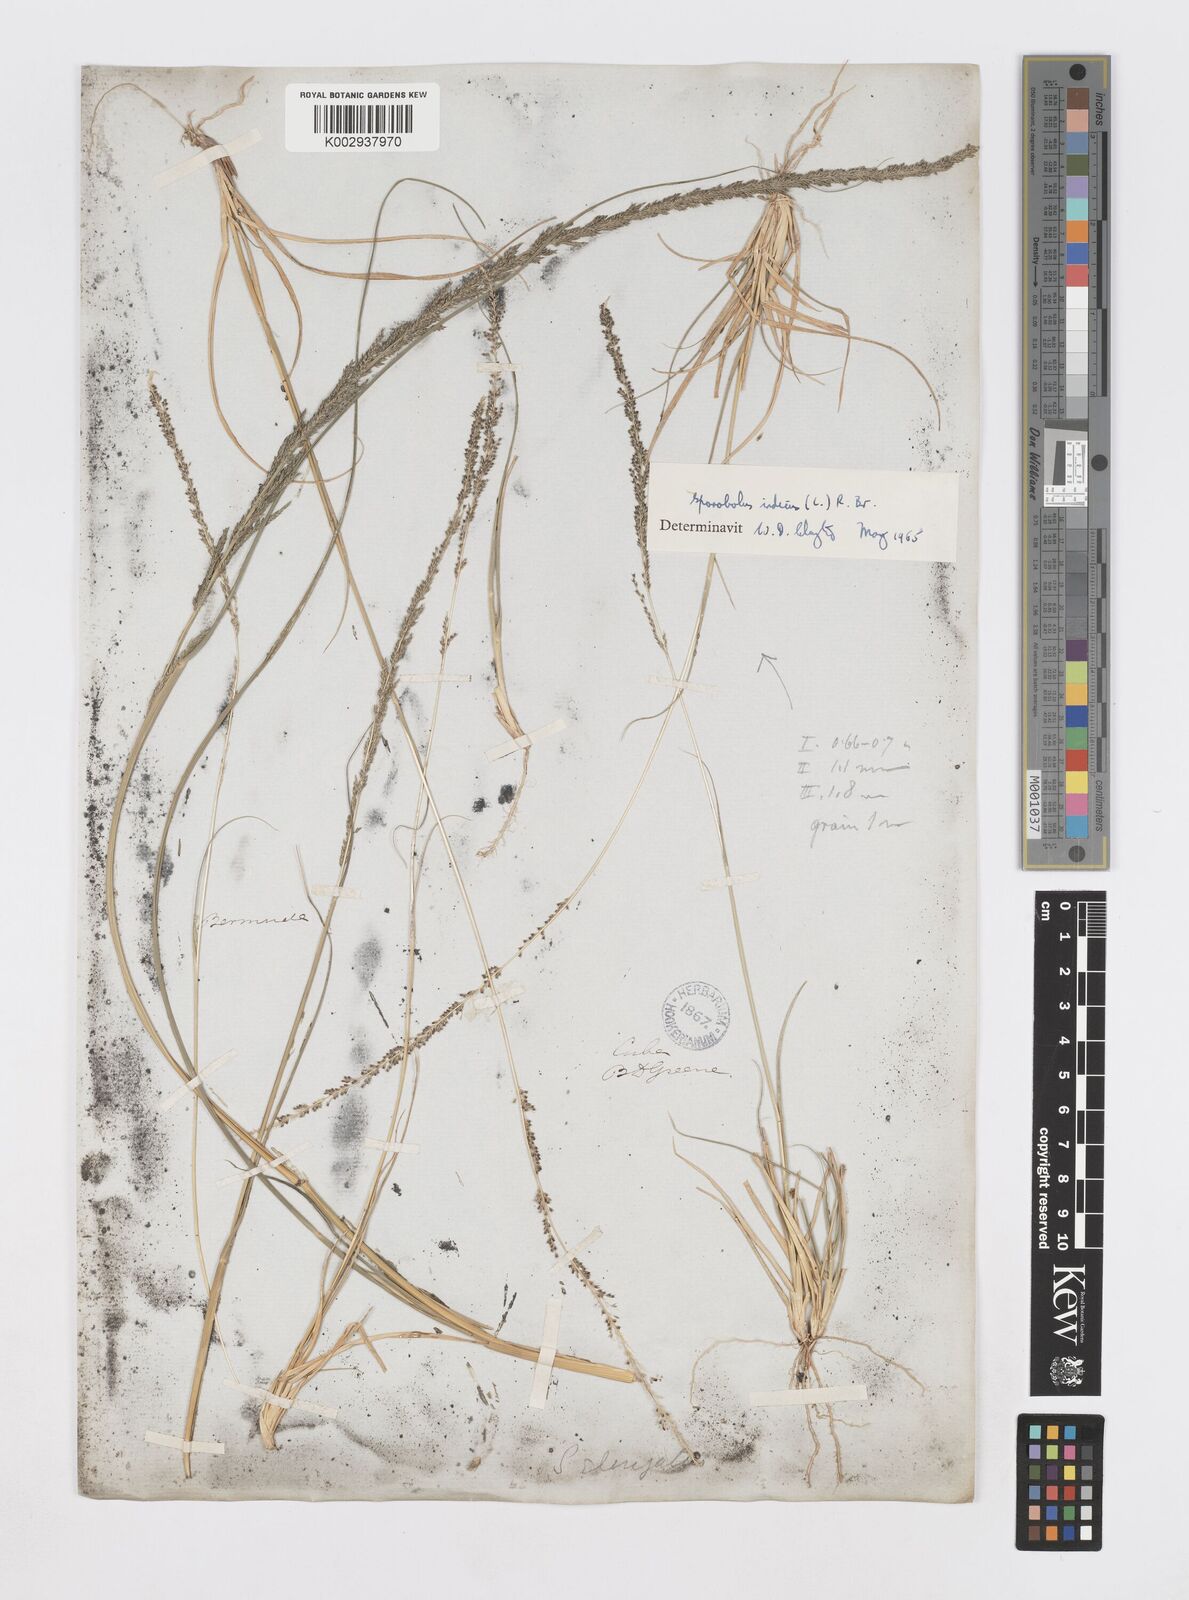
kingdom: Plantae
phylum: Tracheophyta
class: Liliopsida
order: Poales
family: Poaceae
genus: Sporobolus
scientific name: Sporobolus indicus
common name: Smut grass
